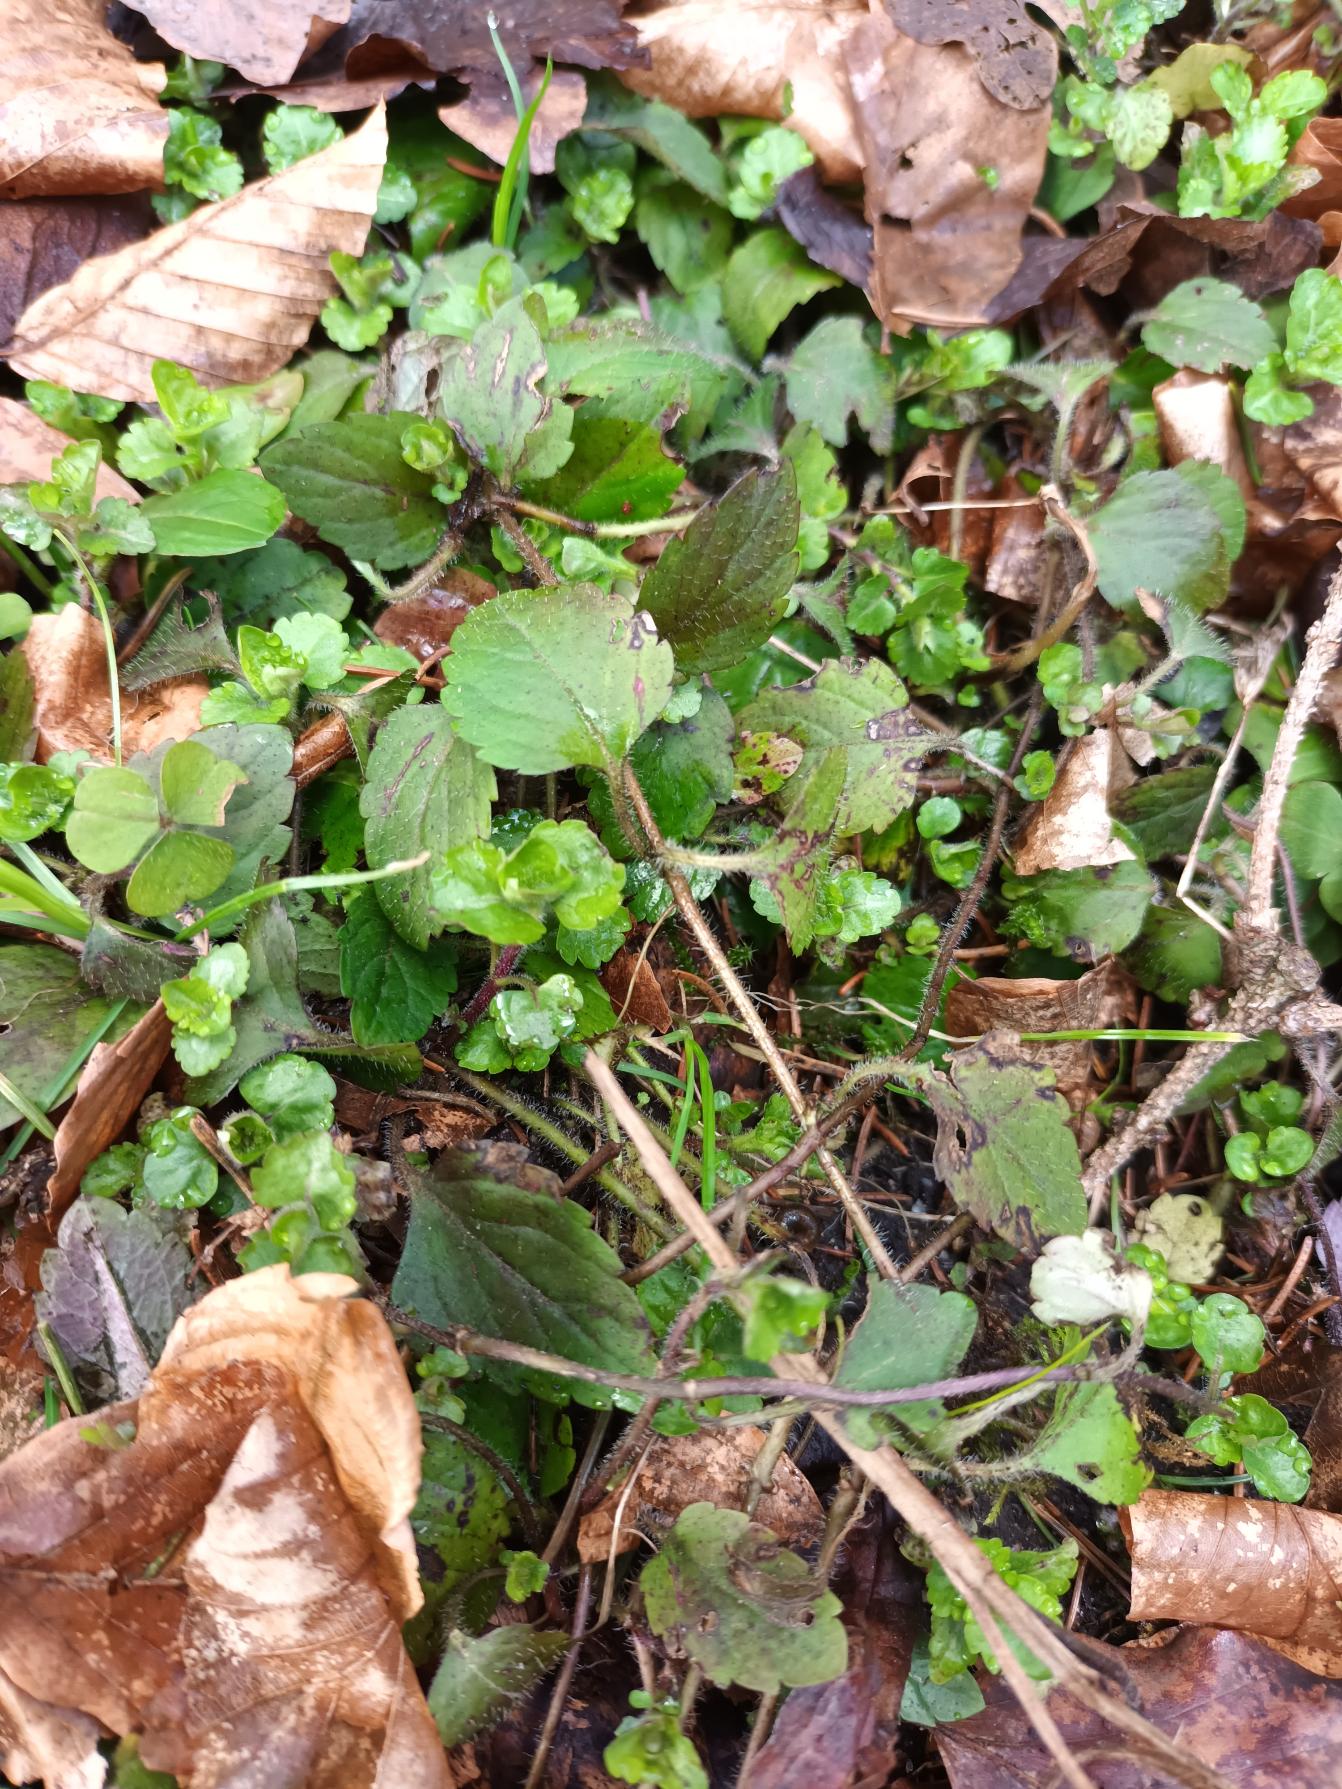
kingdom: Plantae
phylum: Tracheophyta
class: Magnoliopsida
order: Lamiales
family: Plantaginaceae
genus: Veronica
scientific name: Veronica montana
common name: Bjerg-ærenpris
